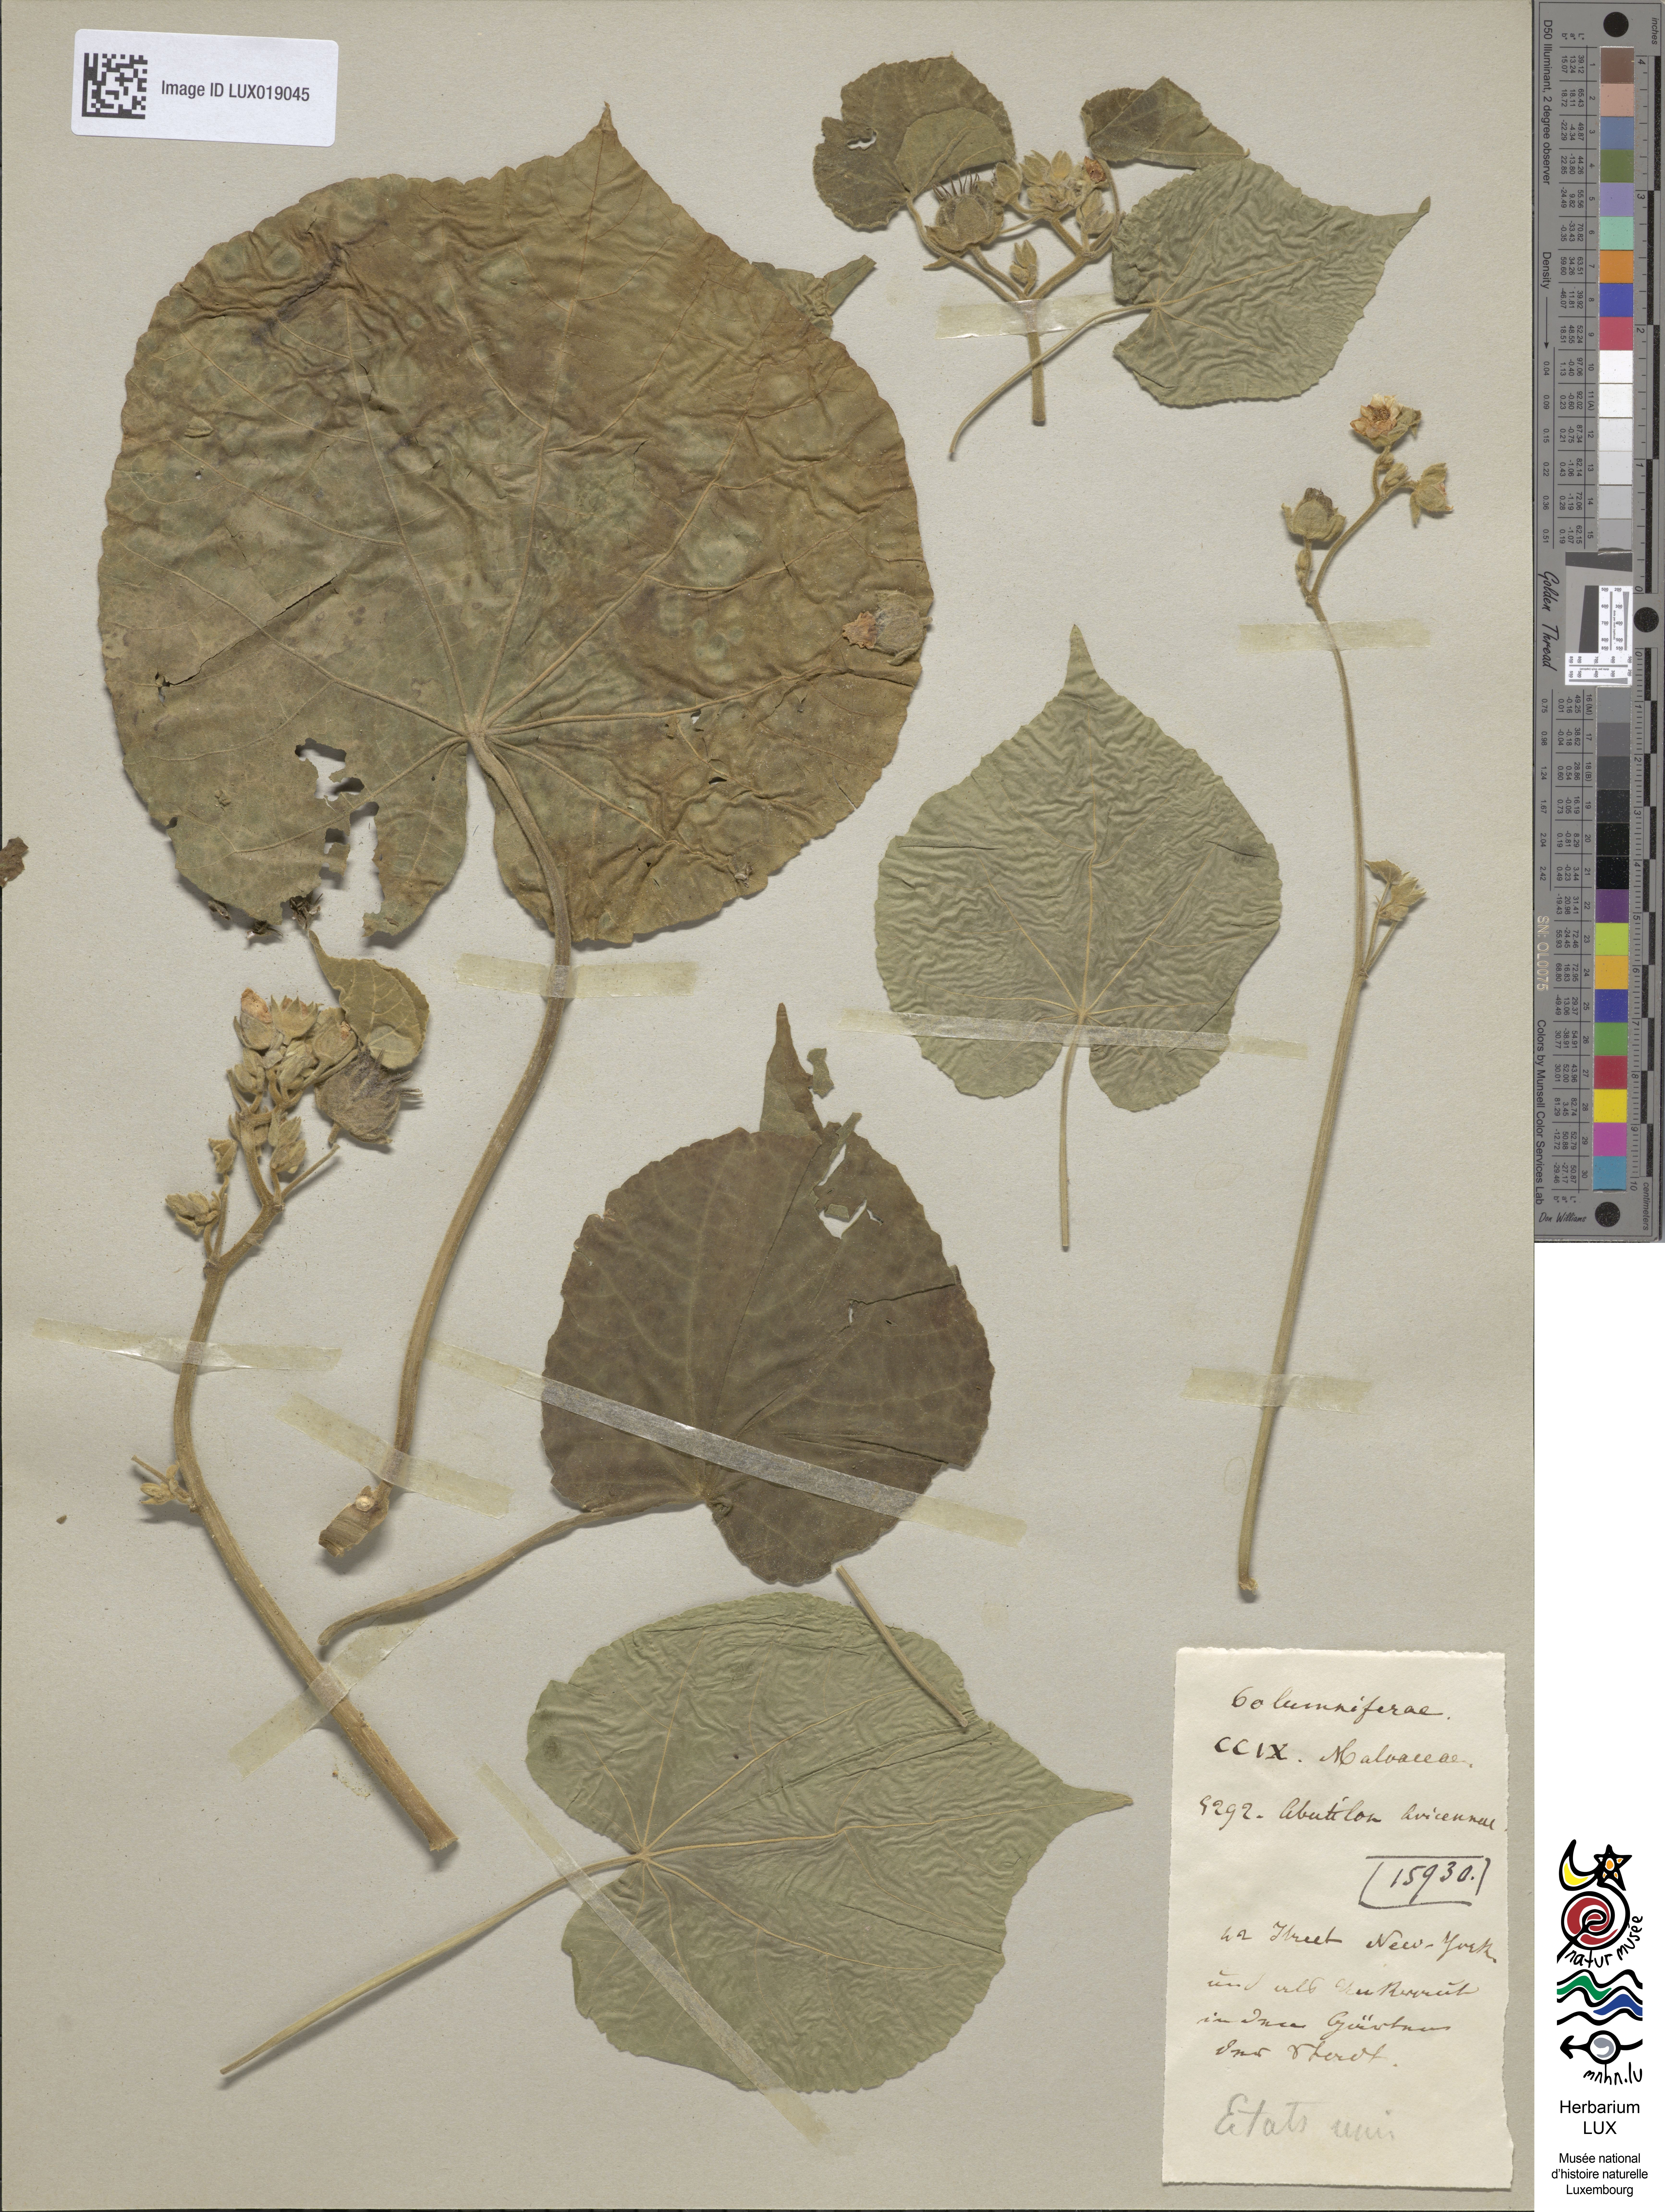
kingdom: Plantae
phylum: Tracheophyta
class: Magnoliopsida
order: Malvales
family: Malvaceae
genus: Abutilon
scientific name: Abutilon theophrasti
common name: Velvetleaf
